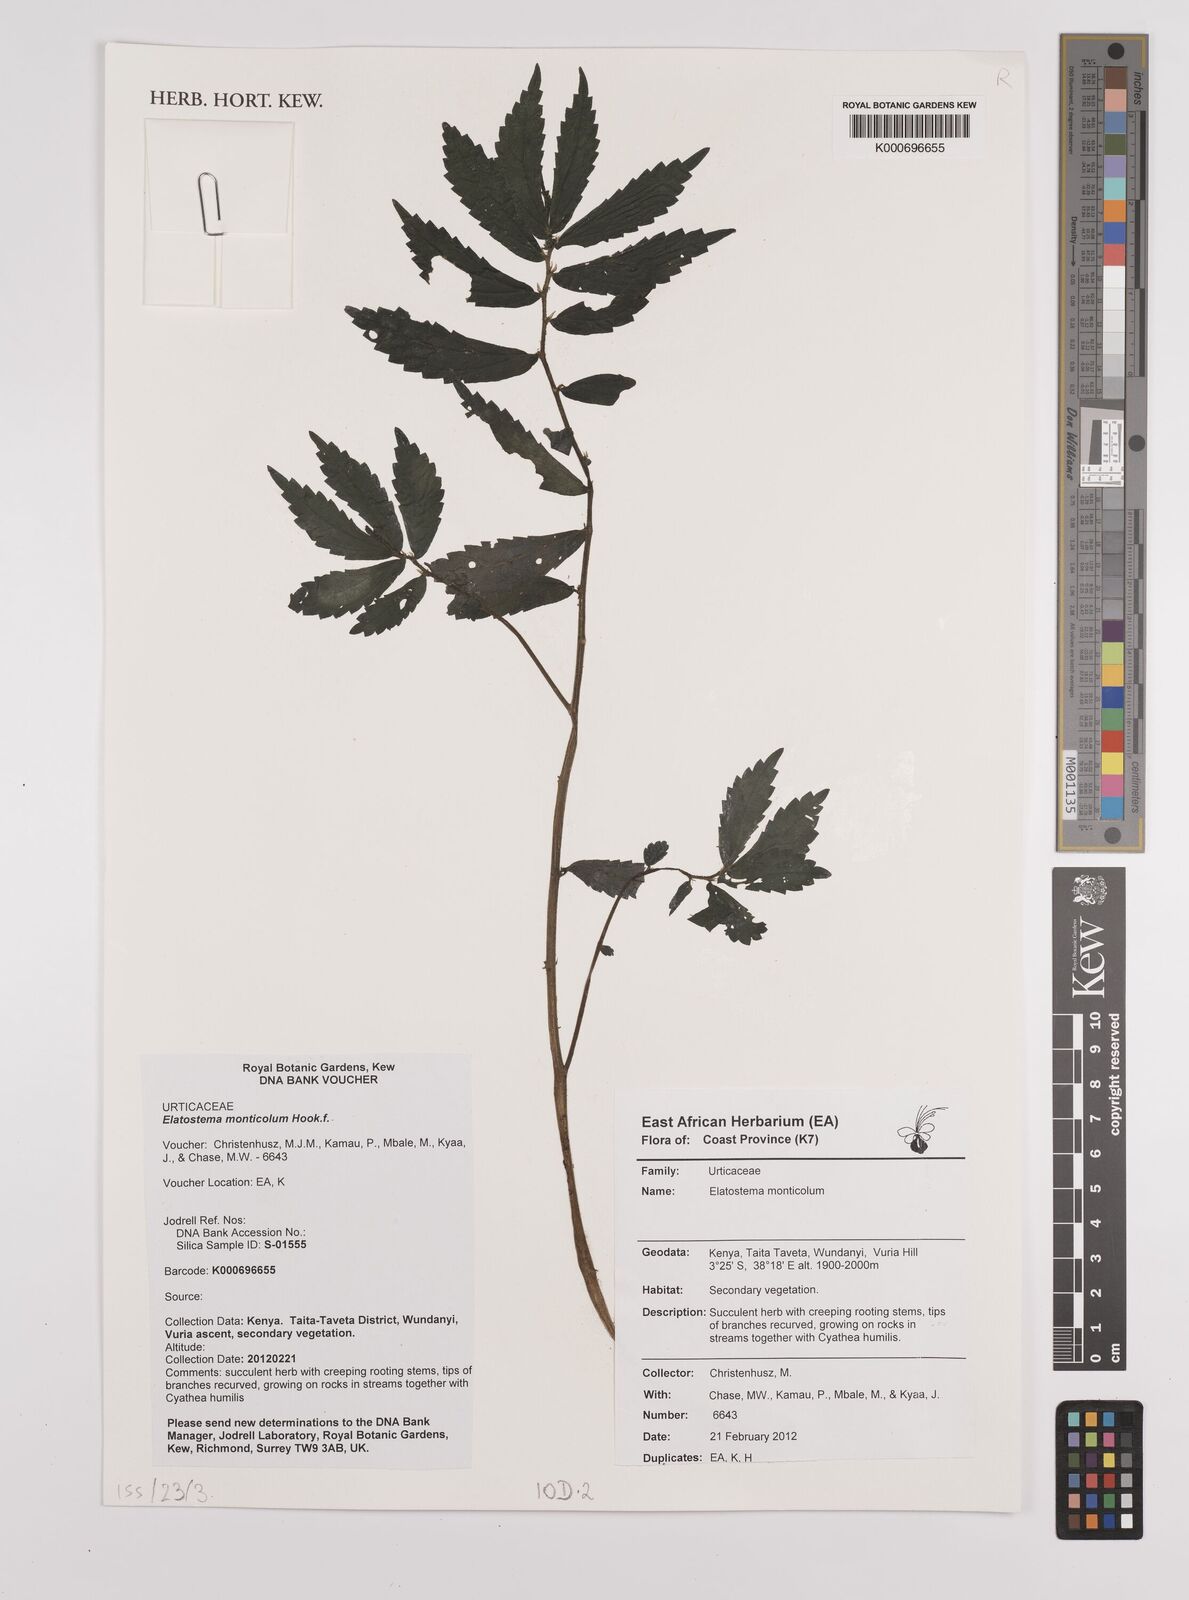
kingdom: Plantae
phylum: Tracheophyta
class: Magnoliopsida
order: Rosales
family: Urticaceae
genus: Elatostema
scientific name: Elatostema monticola
